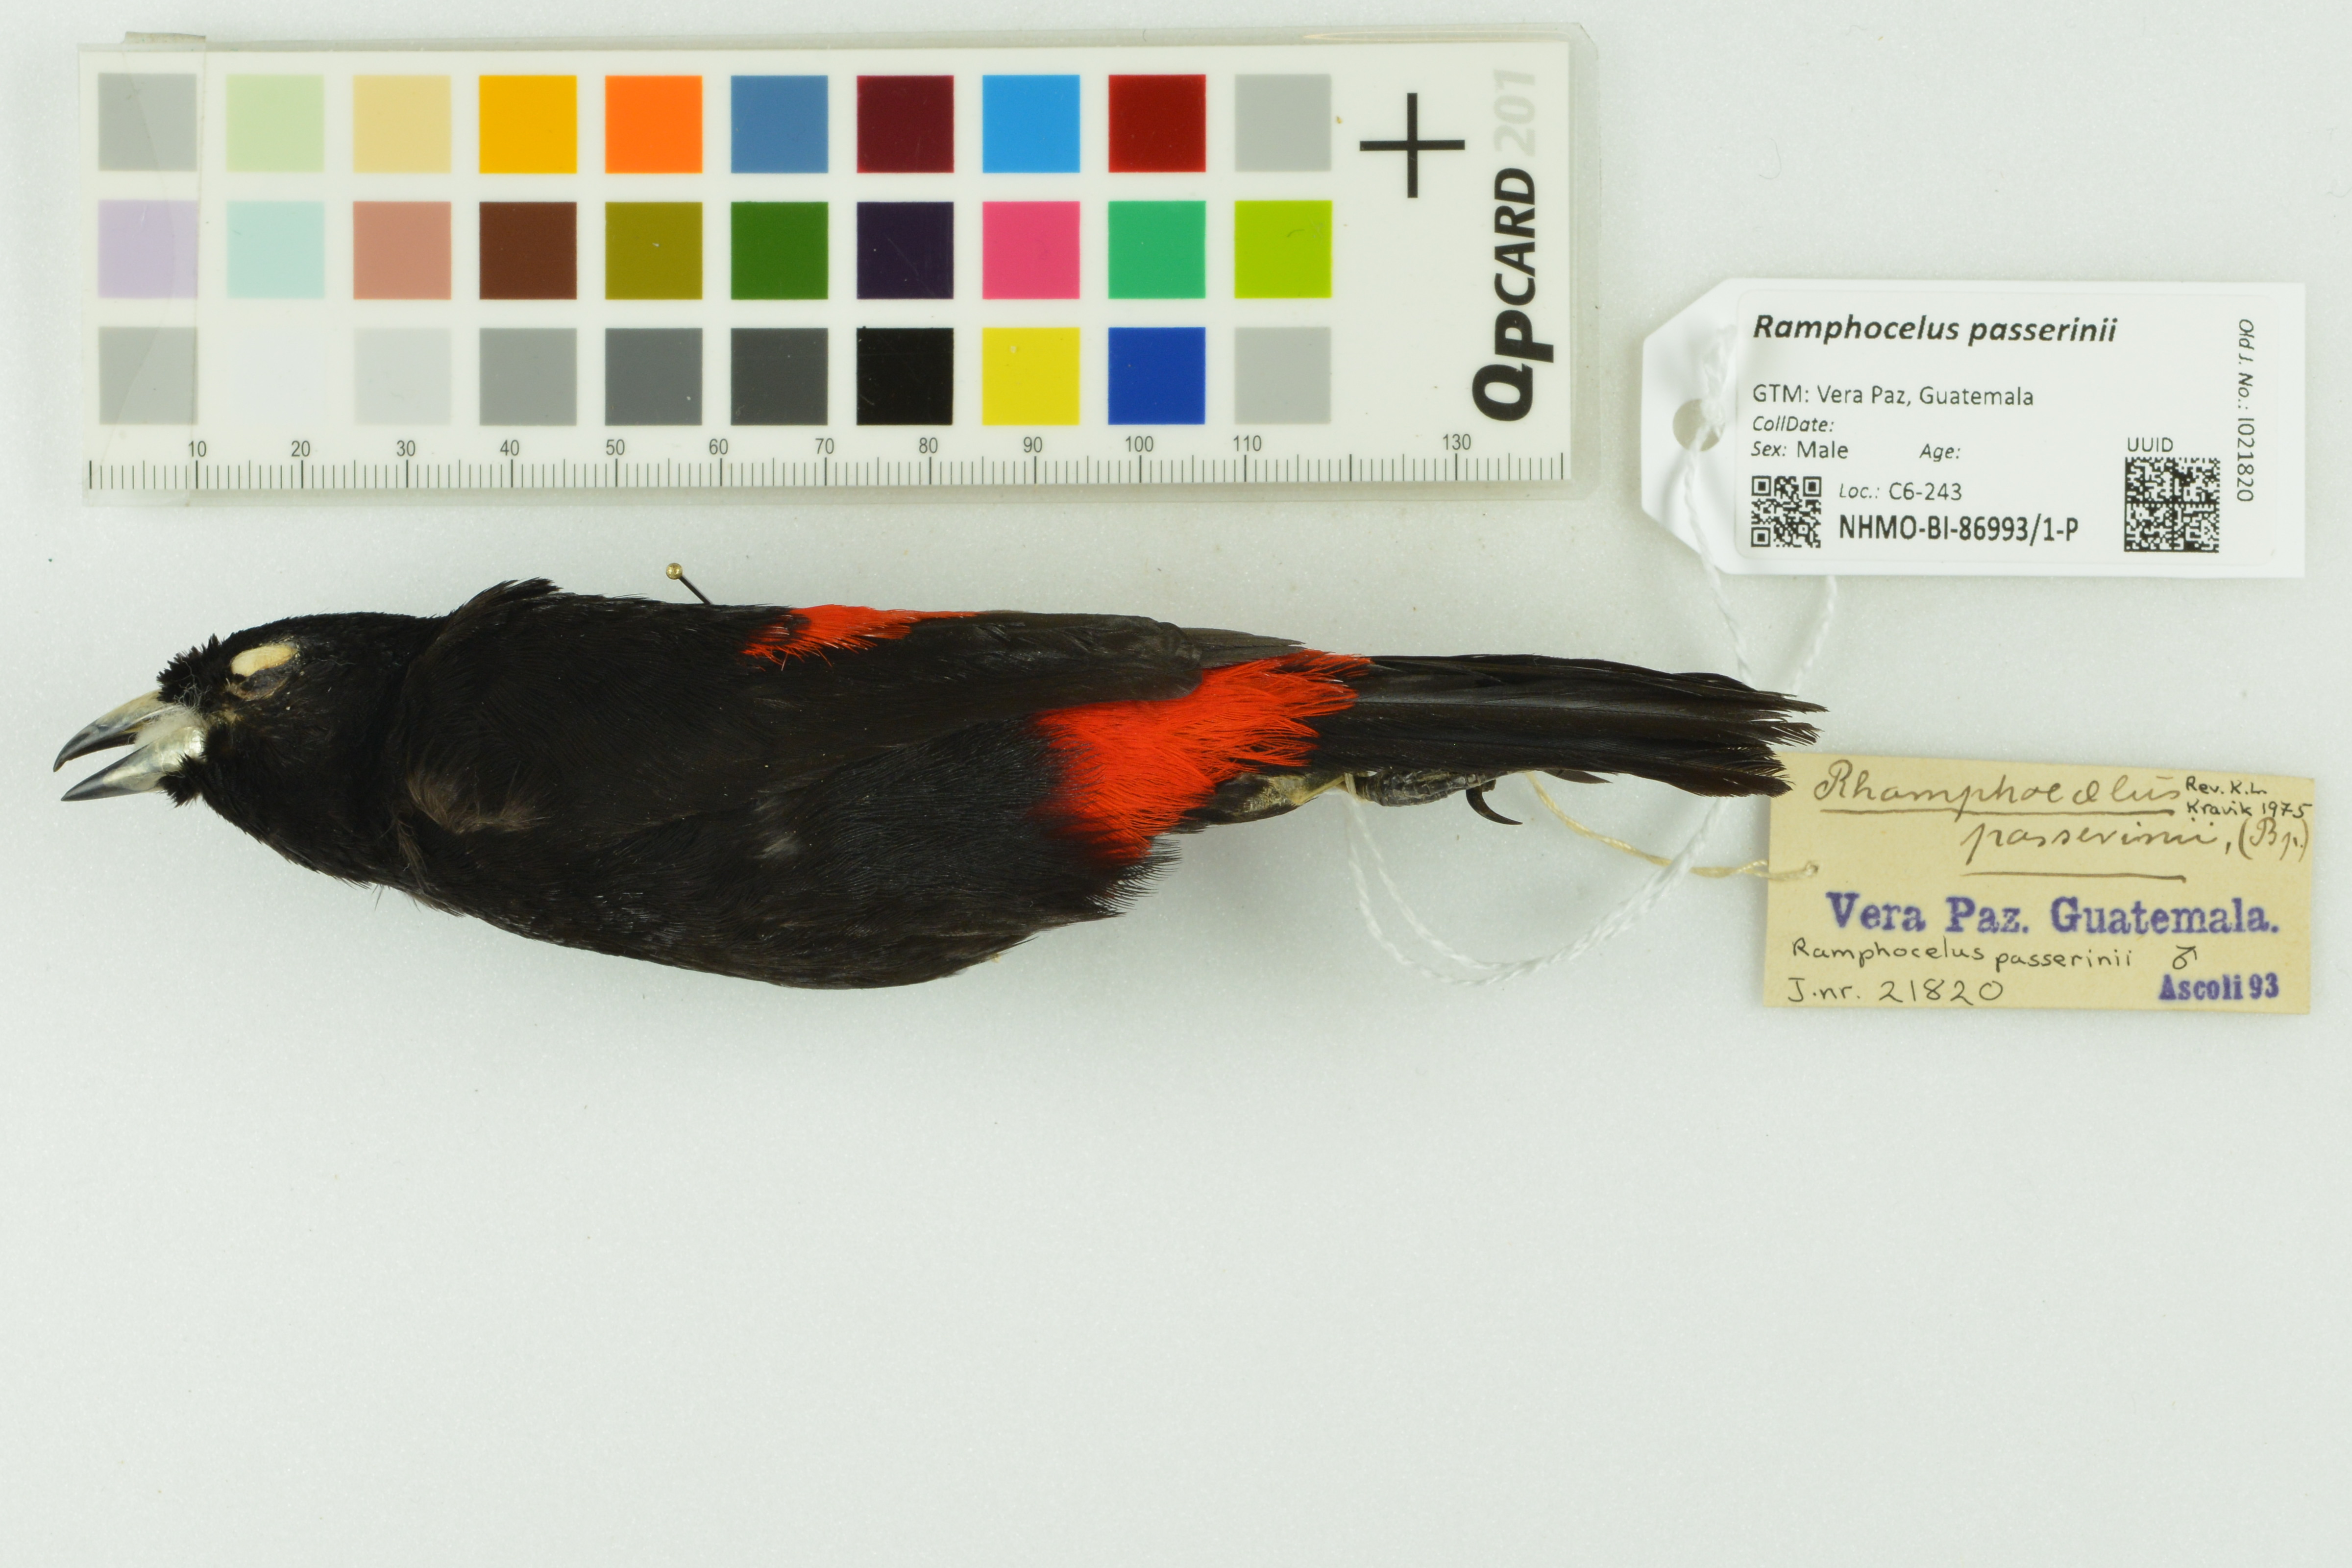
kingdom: Animalia
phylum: Chordata
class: Aves
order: Passeriformes
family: Thraupidae
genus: Ramphocelus
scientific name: Ramphocelus passerinii
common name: Passerini's tanager
